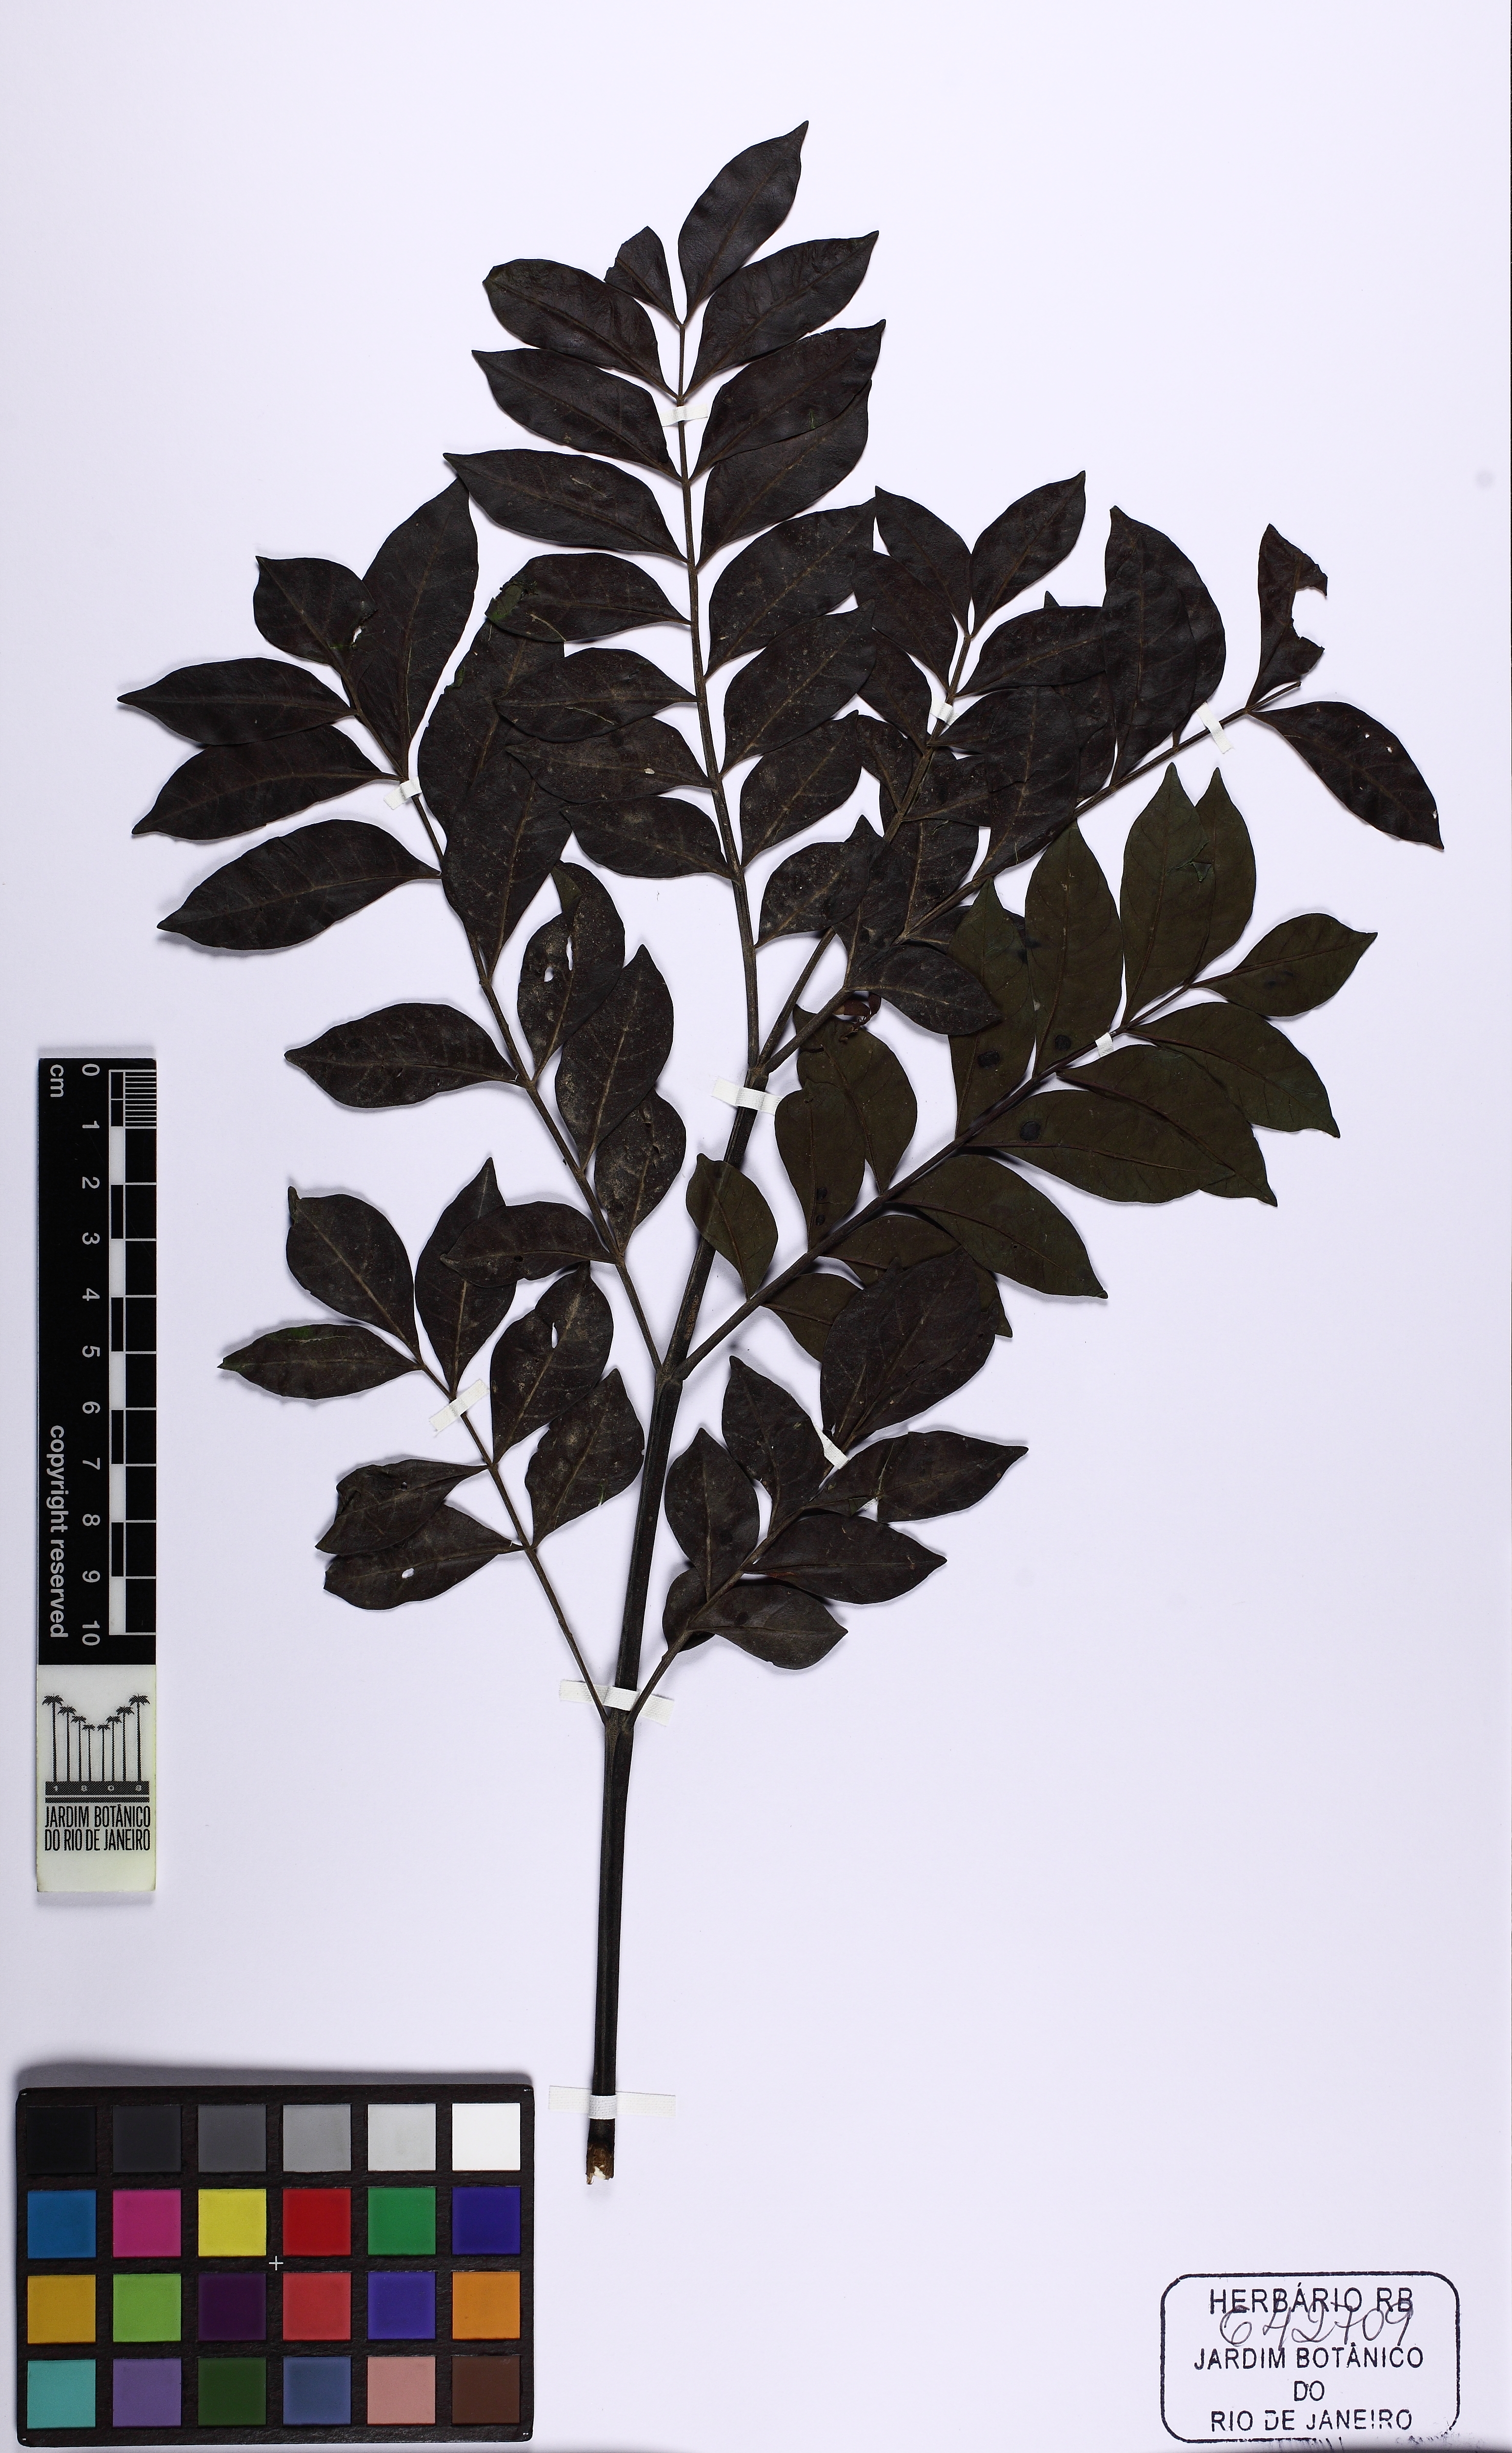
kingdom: Plantae
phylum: Tracheophyta
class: Magnoliopsida
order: Lamiales
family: Bignoniaceae
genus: Jacaranda
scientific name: Jacaranda copaia
